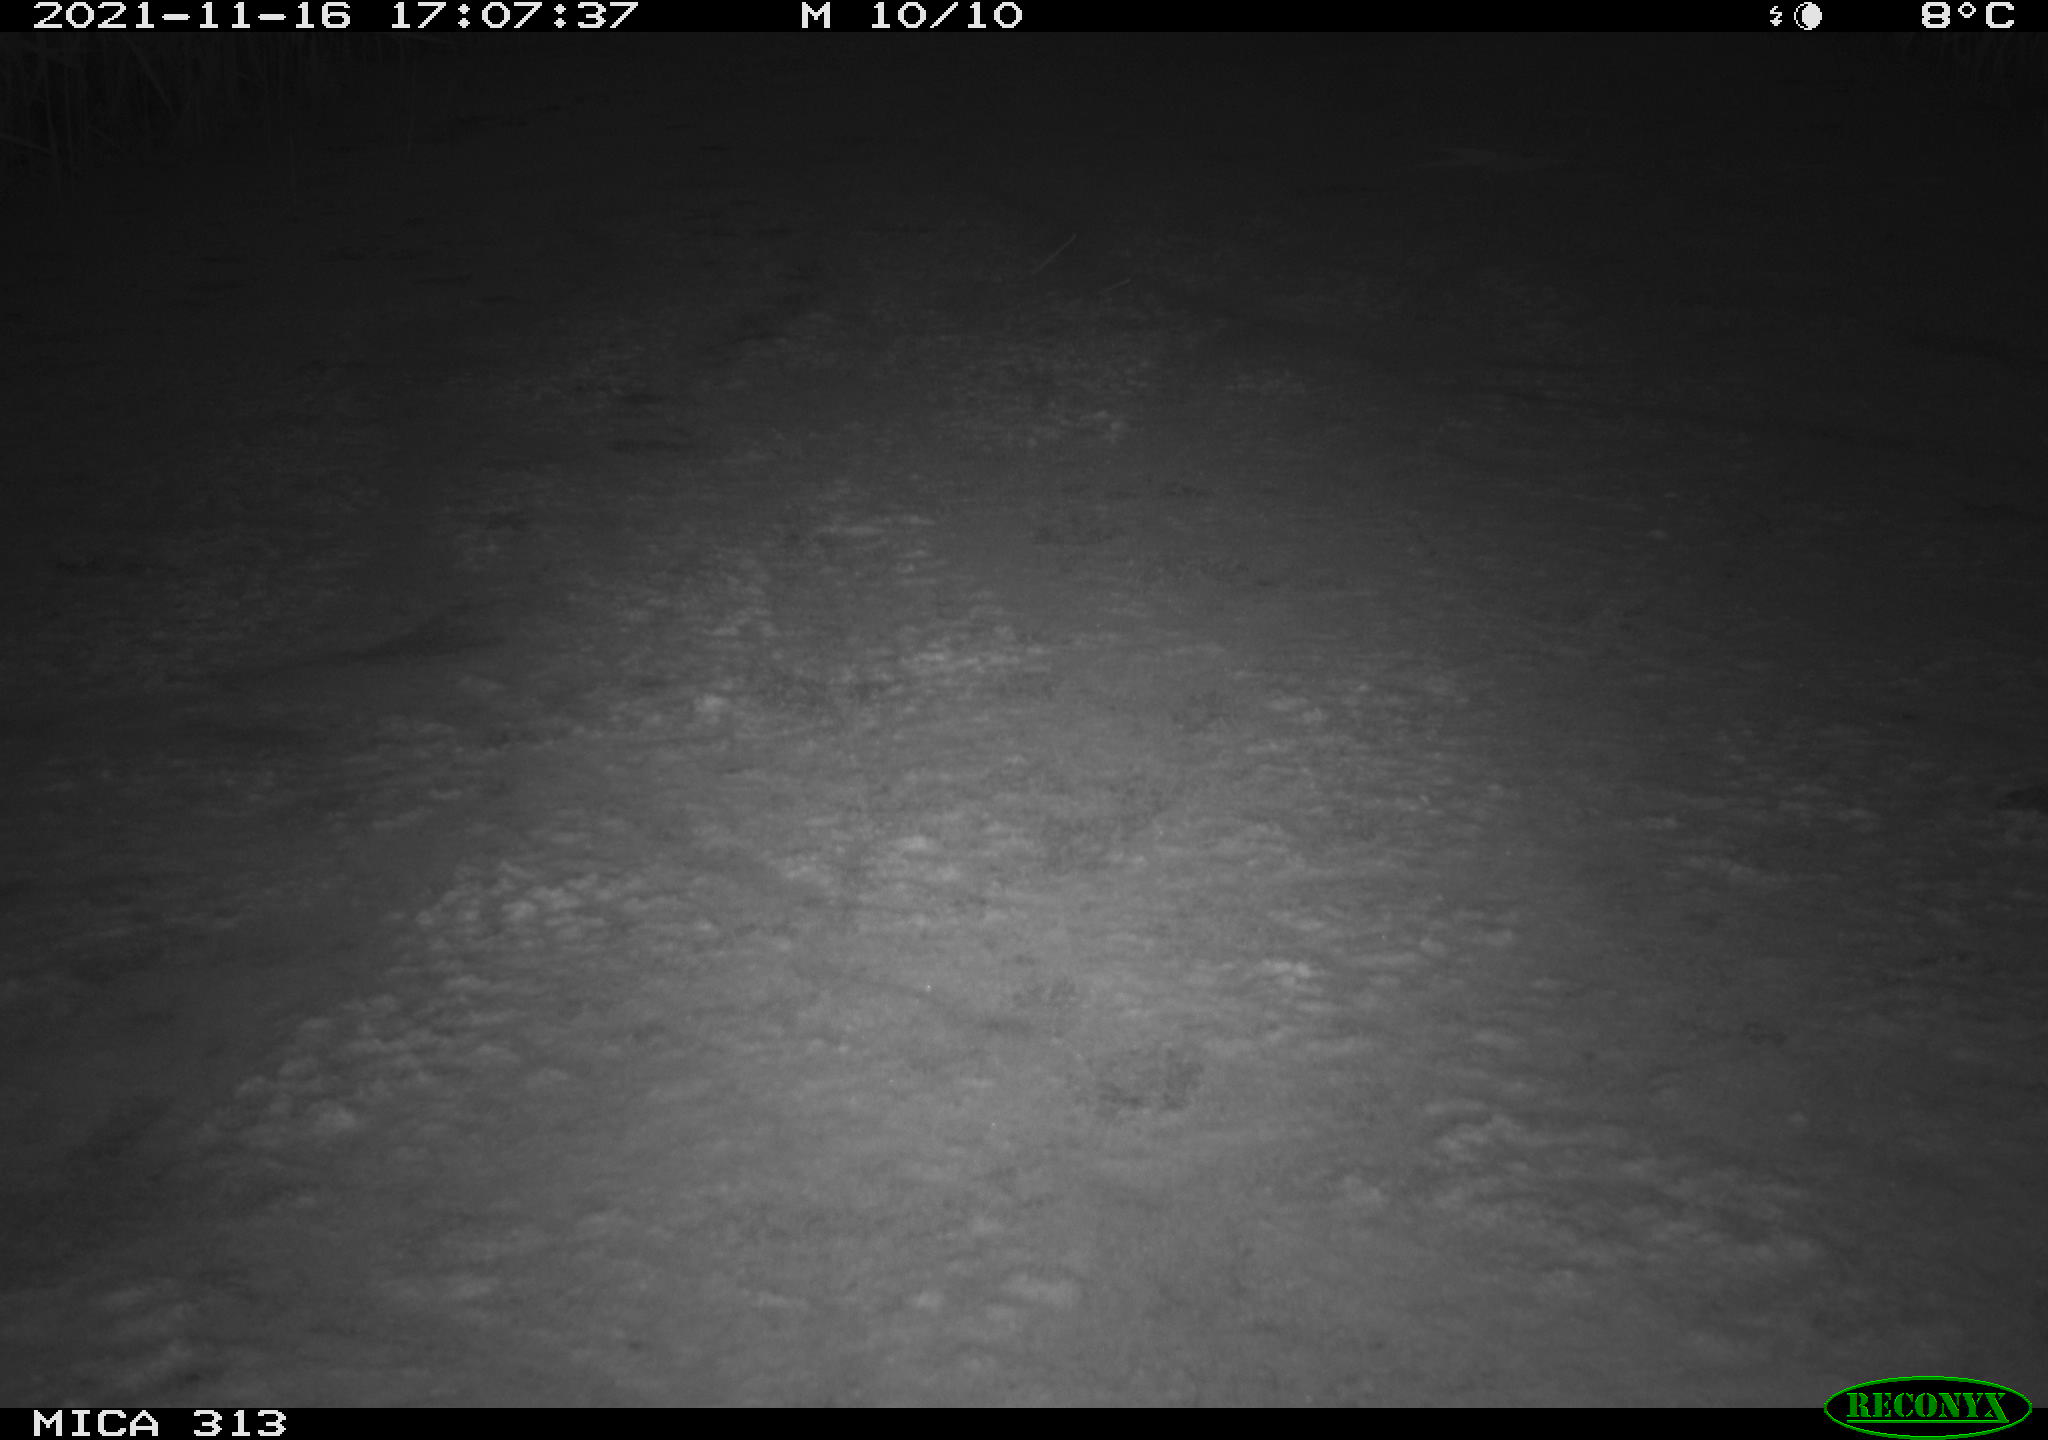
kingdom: Animalia
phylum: Chordata
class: Aves
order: Gruiformes
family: Rallidae
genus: Gallinula
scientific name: Gallinula chloropus
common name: Common moorhen
